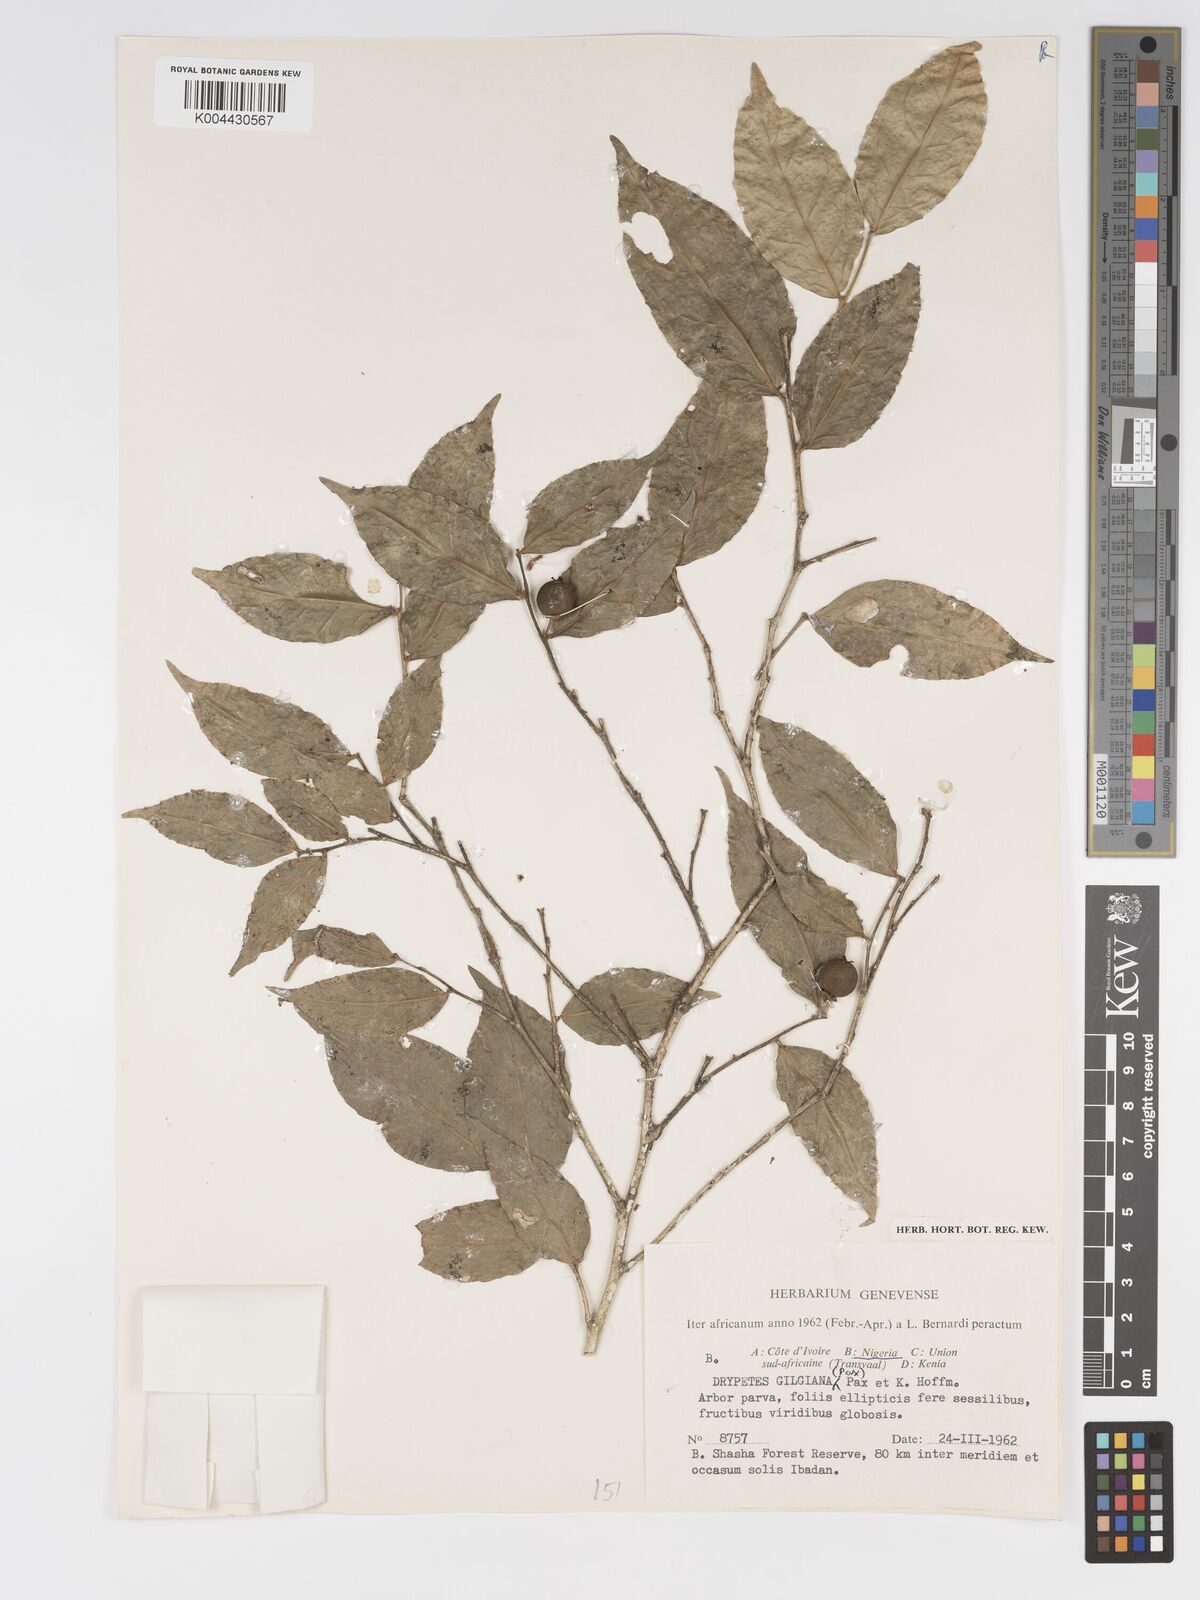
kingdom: Plantae
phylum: Tracheophyta
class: Magnoliopsida
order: Malpighiales
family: Putranjivaceae
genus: Drypetes
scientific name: Drypetes gilgiana
